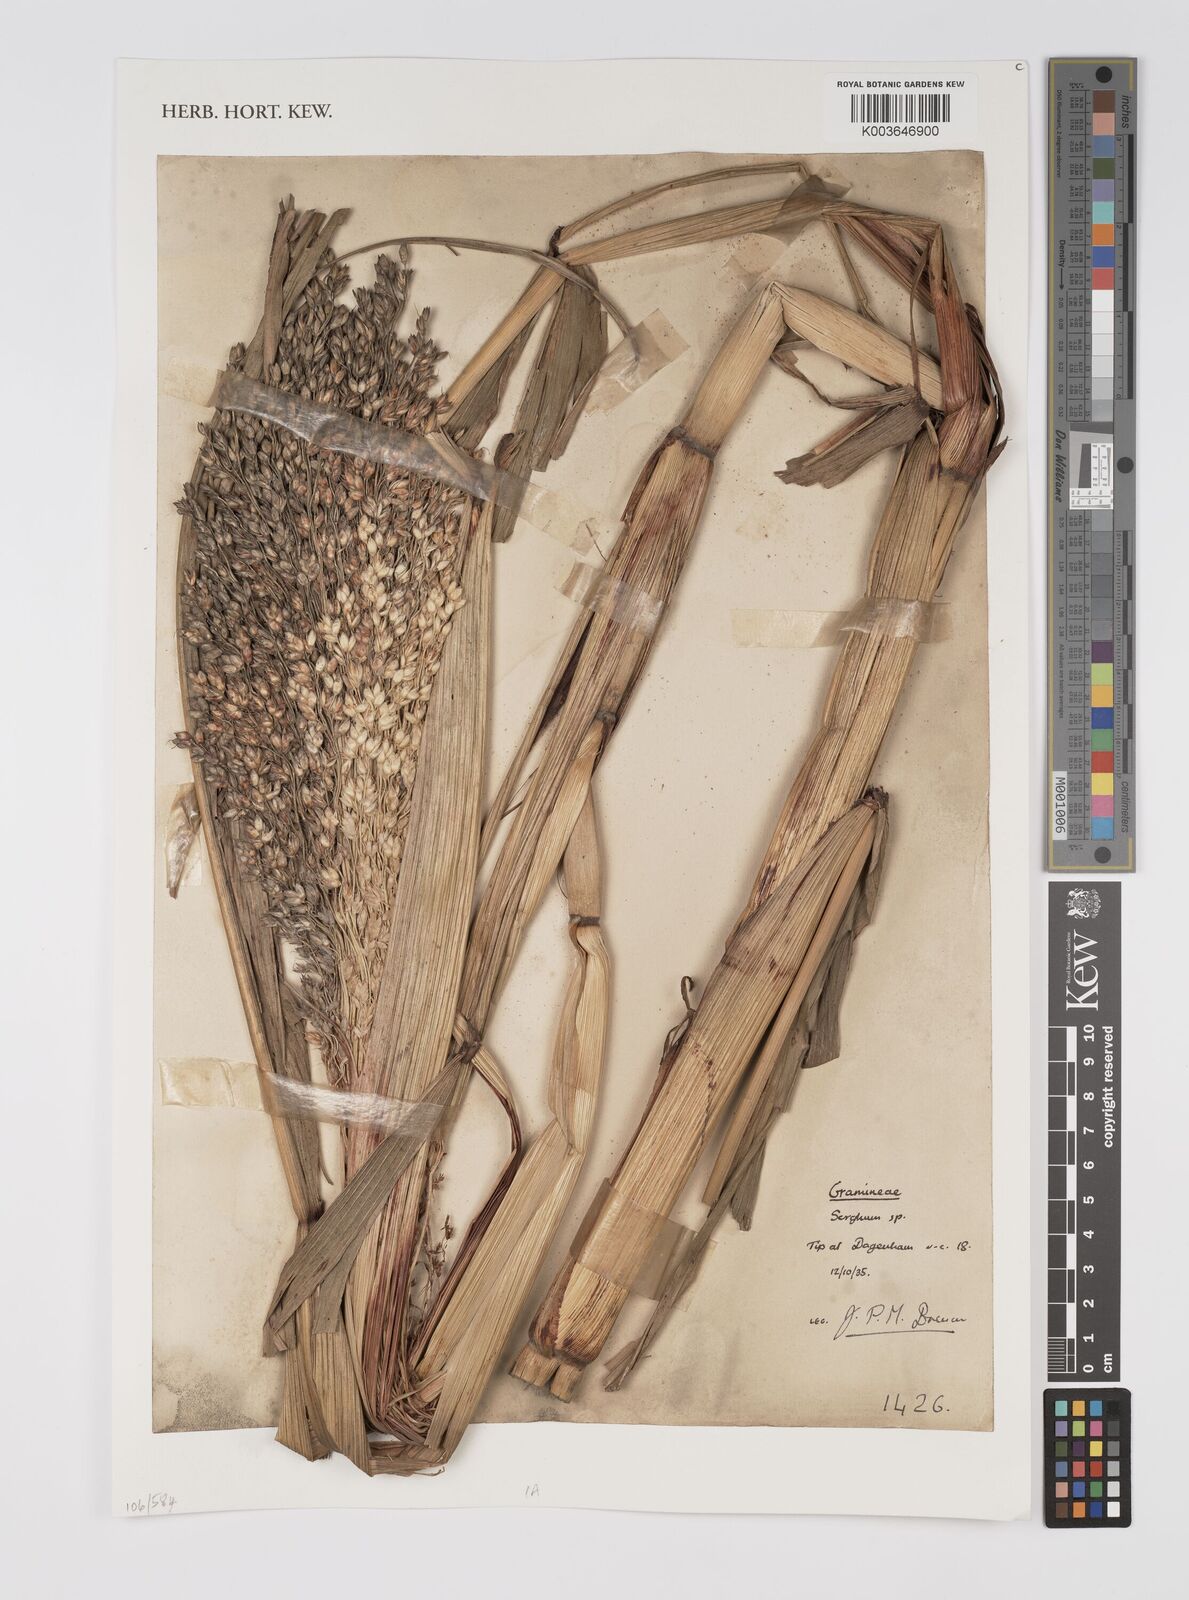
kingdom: Plantae
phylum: Tracheophyta
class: Liliopsida
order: Poales
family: Poaceae
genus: Sorghum
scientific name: Sorghum
